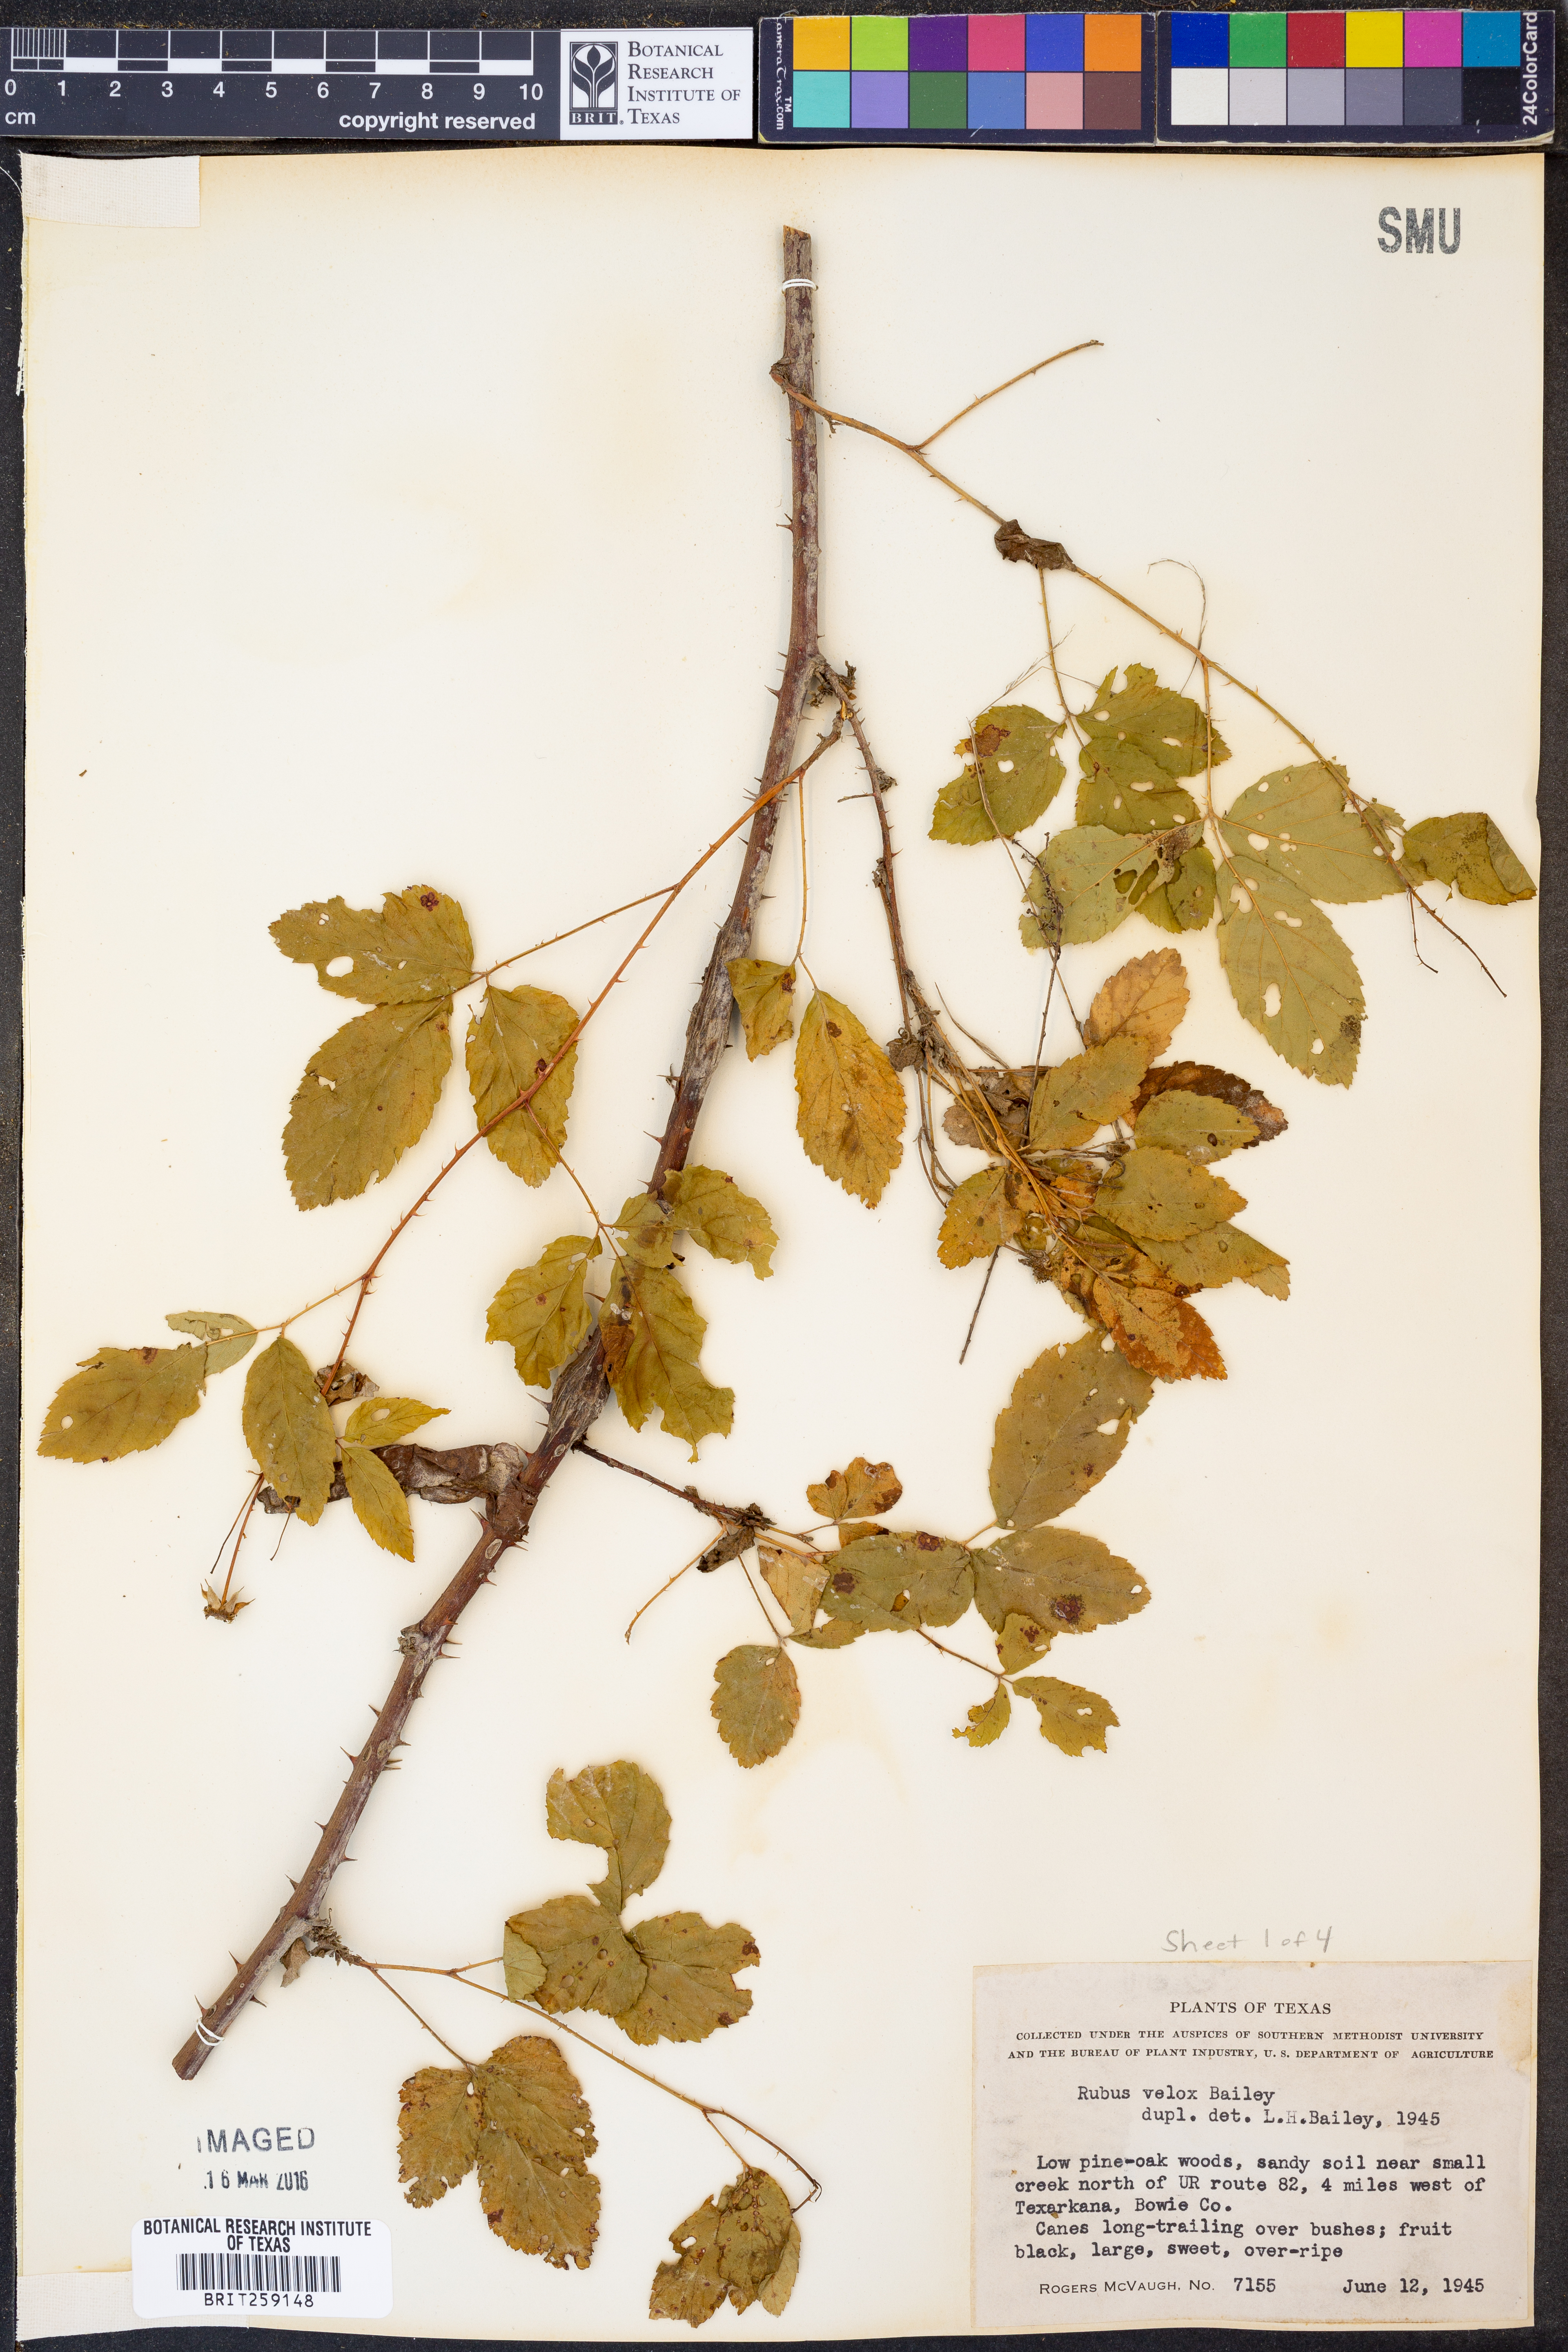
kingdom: Plantae
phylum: Tracheophyta
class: Magnoliopsida
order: Rosales
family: Rosaceae
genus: Rubus
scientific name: Rubus velox
